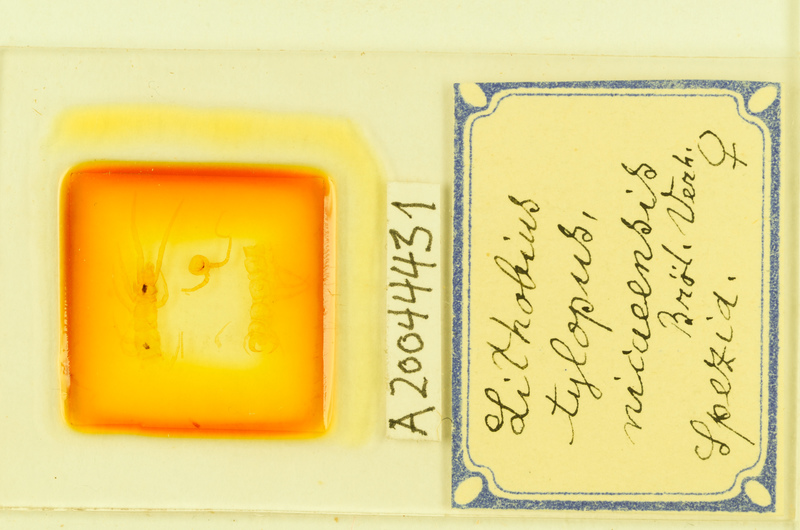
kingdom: Animalia
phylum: Arthropoda
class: Chilopoda
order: Lithobiomorpha
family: Lithobiidae
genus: Lithobius
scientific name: Lithobius tylopus
